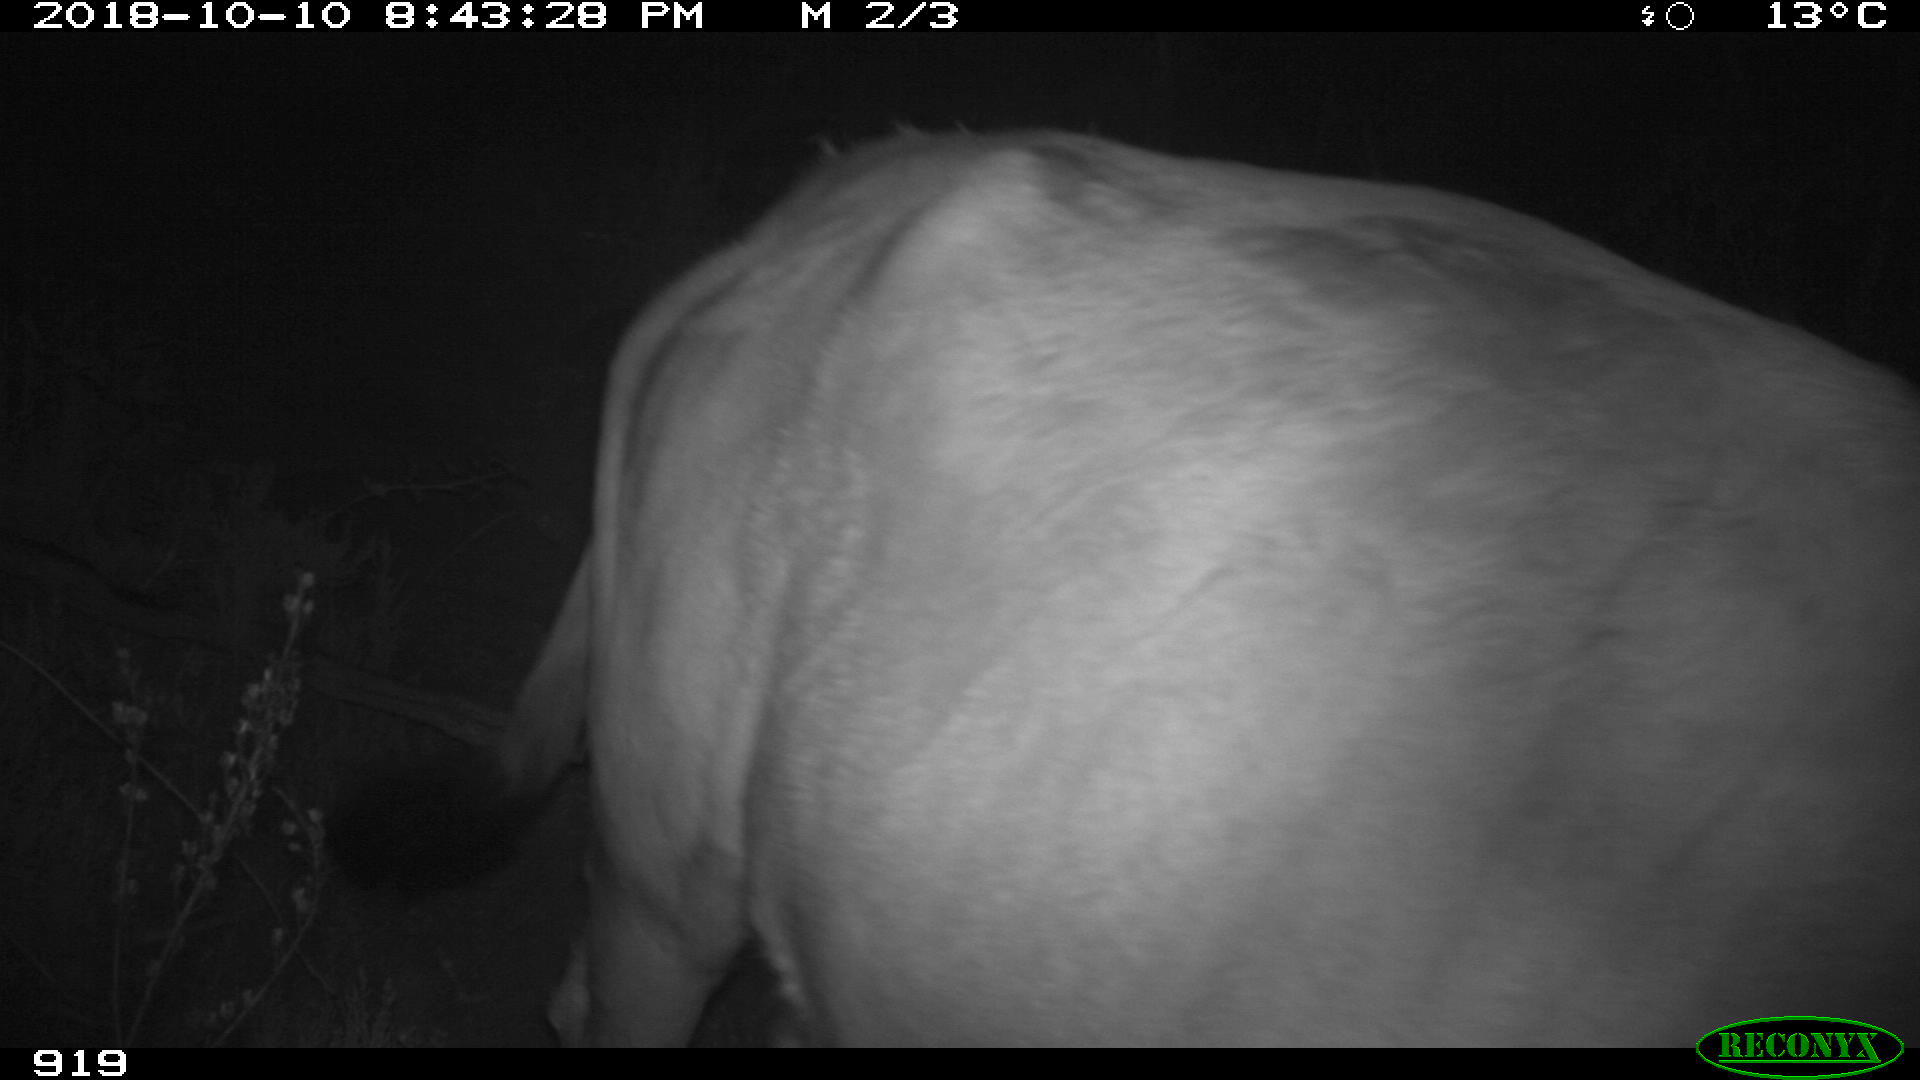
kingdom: Animalia
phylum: Chordata
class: Mammalia
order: Artiodactyla
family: Bovidae
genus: Bos
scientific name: Bos taurus
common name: Domesticated cattle
